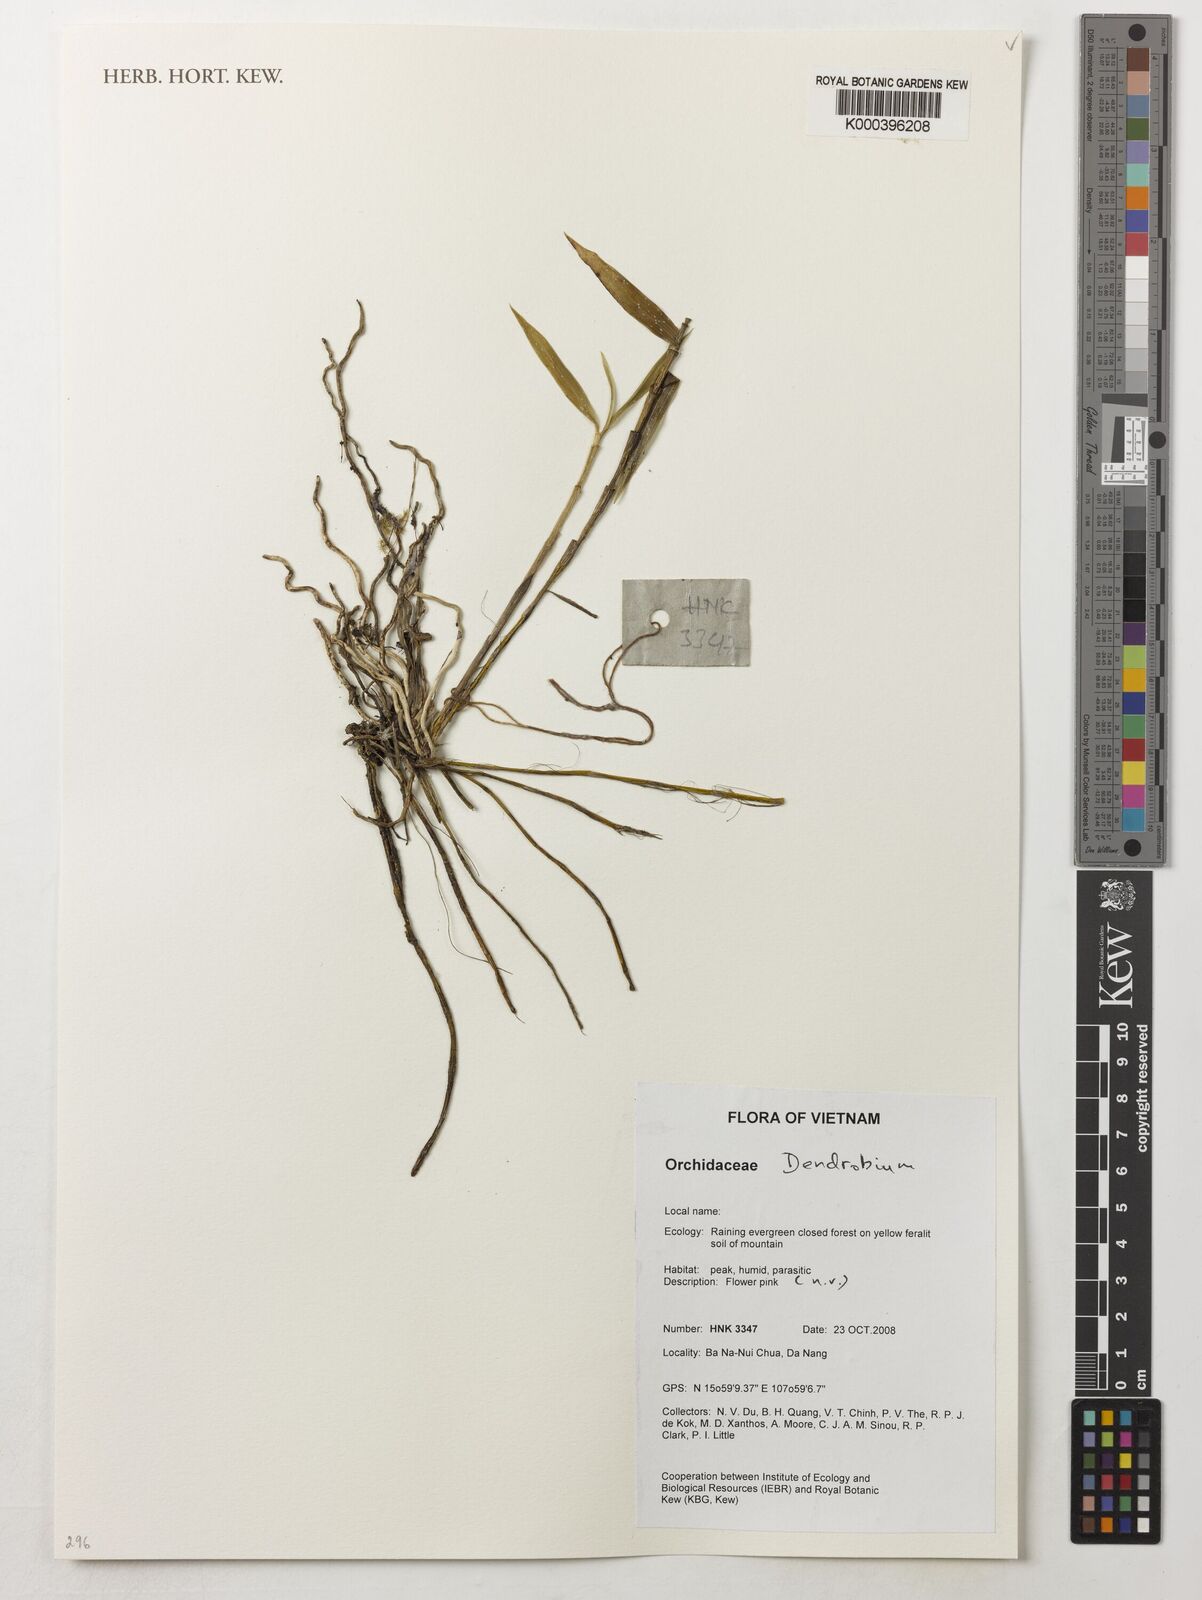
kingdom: Plantae
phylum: Tracheophyta
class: Liliopsida
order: Asparagales
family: Orchidaceae
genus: Dendrobium
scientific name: Dendrobium
